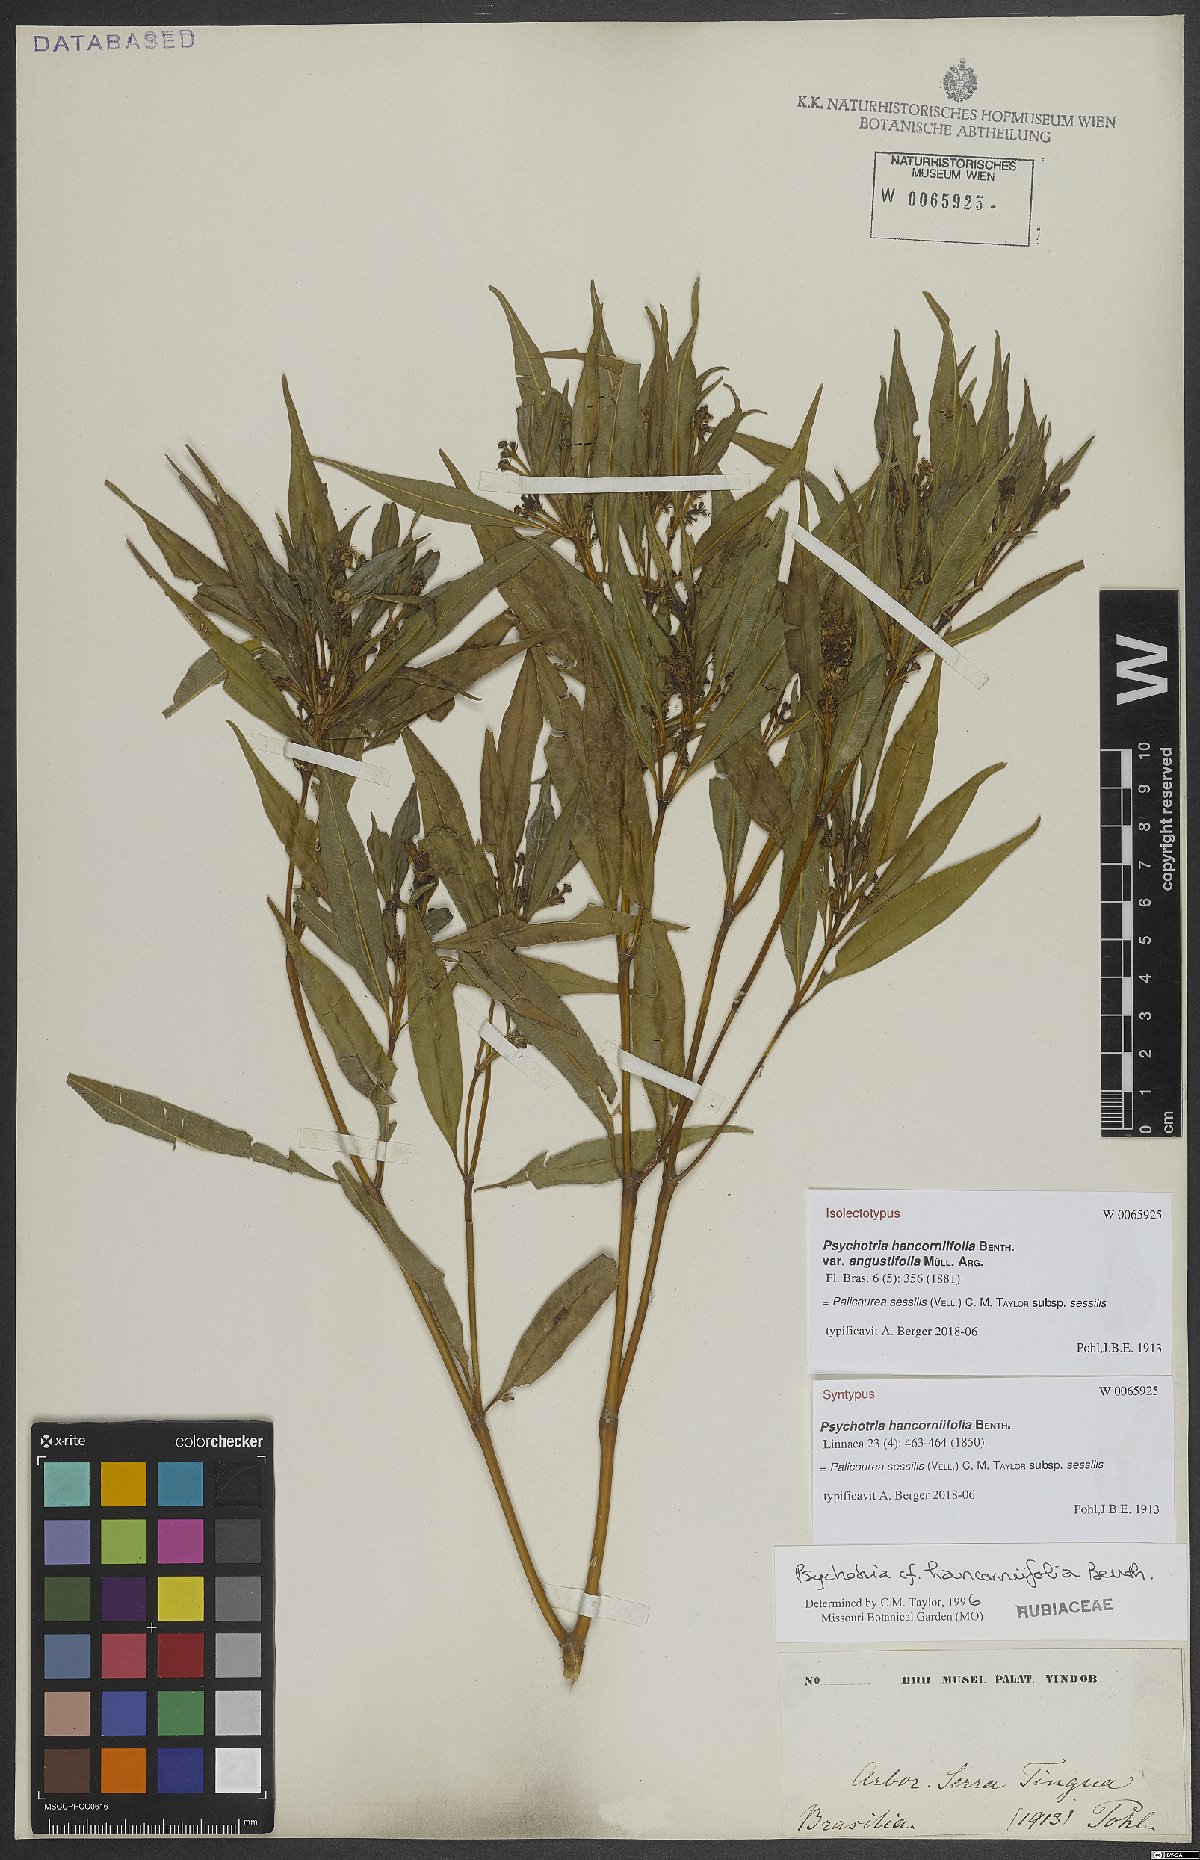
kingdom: Plantae
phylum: Tracheophyta
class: Magnoliopsida
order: Gentianales
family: Rubiaceae
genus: Palicourea
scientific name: Palicourea sessilis
